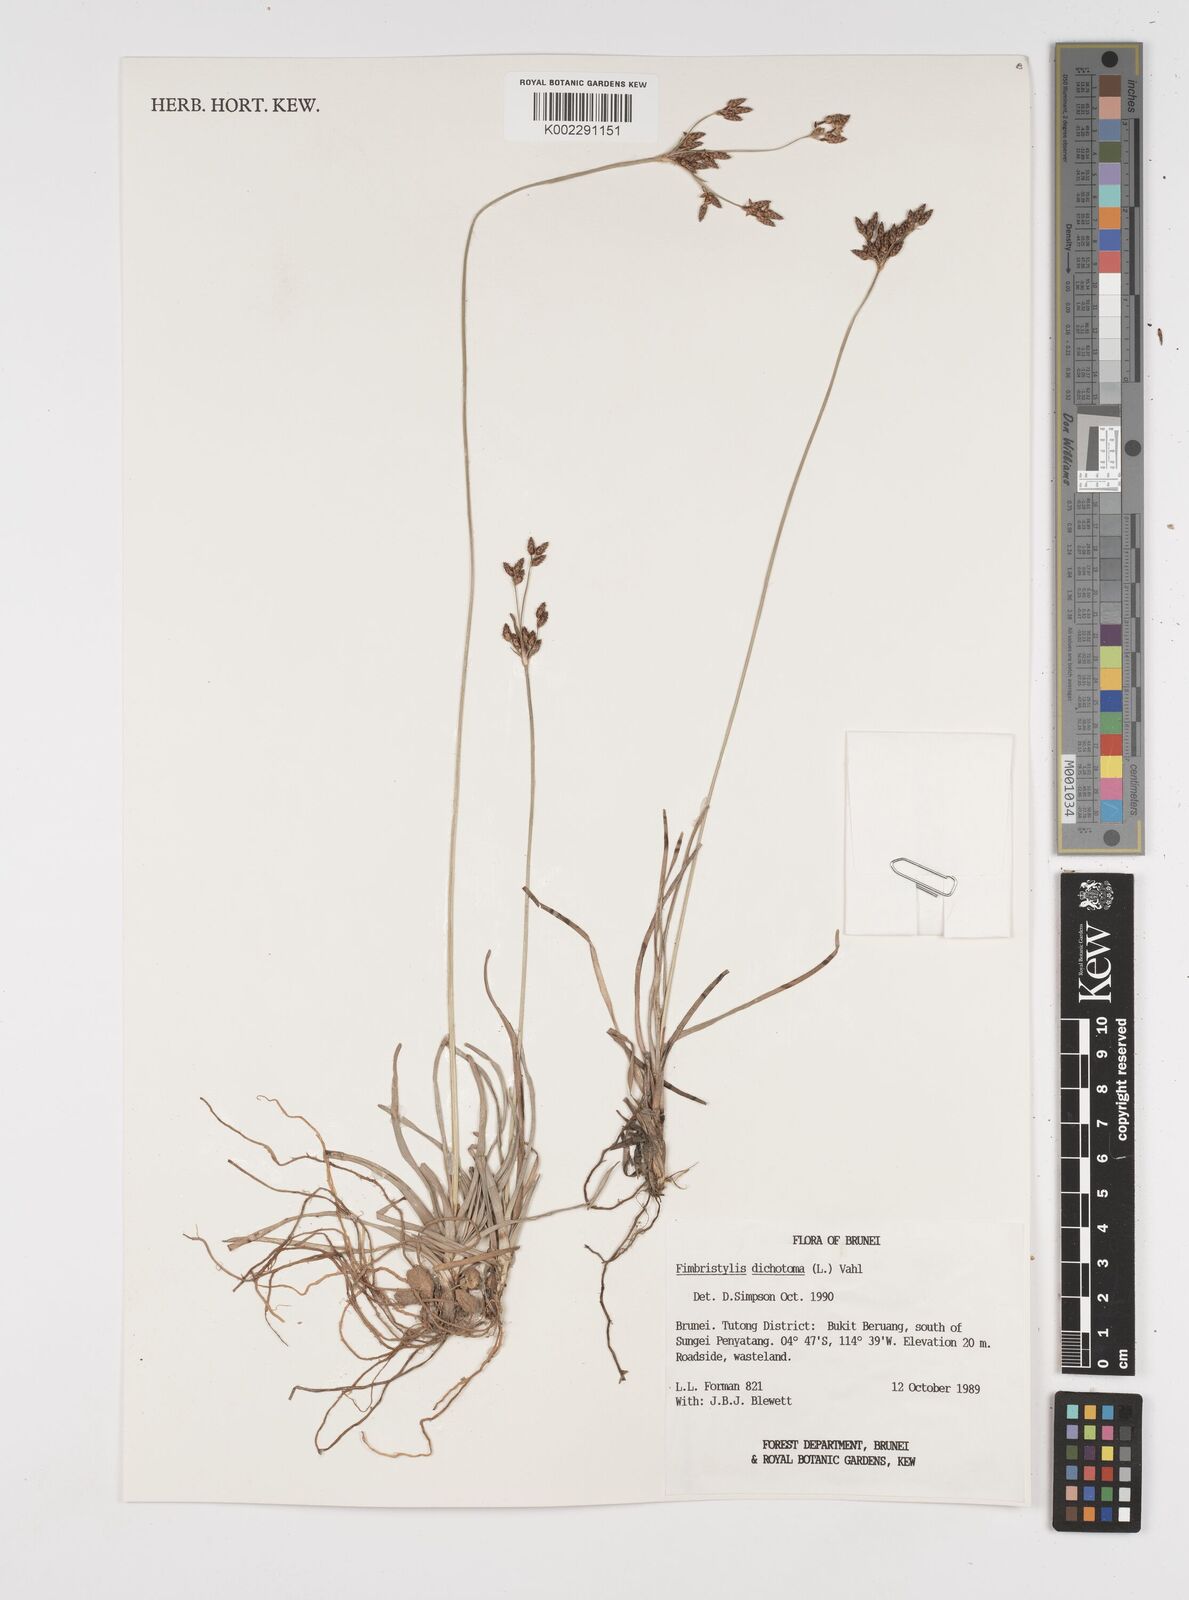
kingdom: Plantae
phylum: Tracheophyta
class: Liliopsida
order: Poales
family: Cyperaceae
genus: Fimbristylis
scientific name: Fimbristylis dichotoma
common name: Forked fimbry
